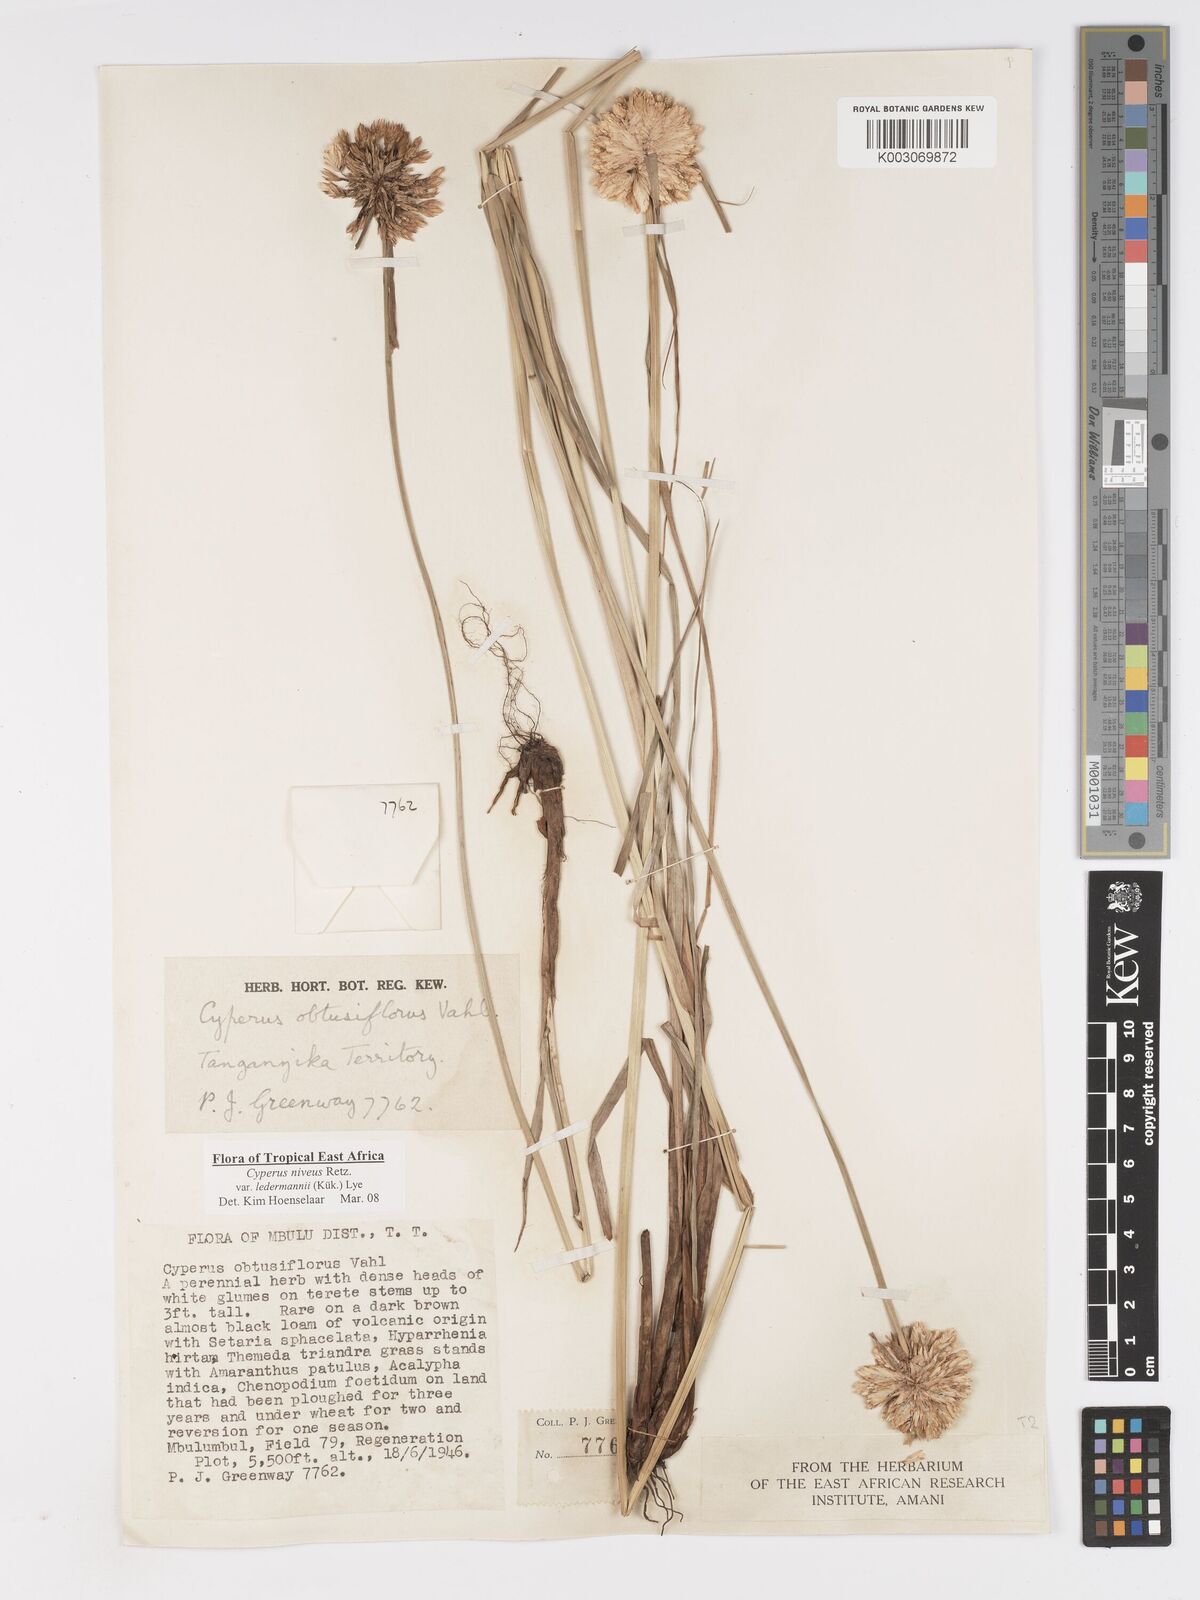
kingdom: Plantae
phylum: Tracheophyta
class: Liliopsida
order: Poales
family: Cyperaceae
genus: Cyperus
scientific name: Cyperus niveus
